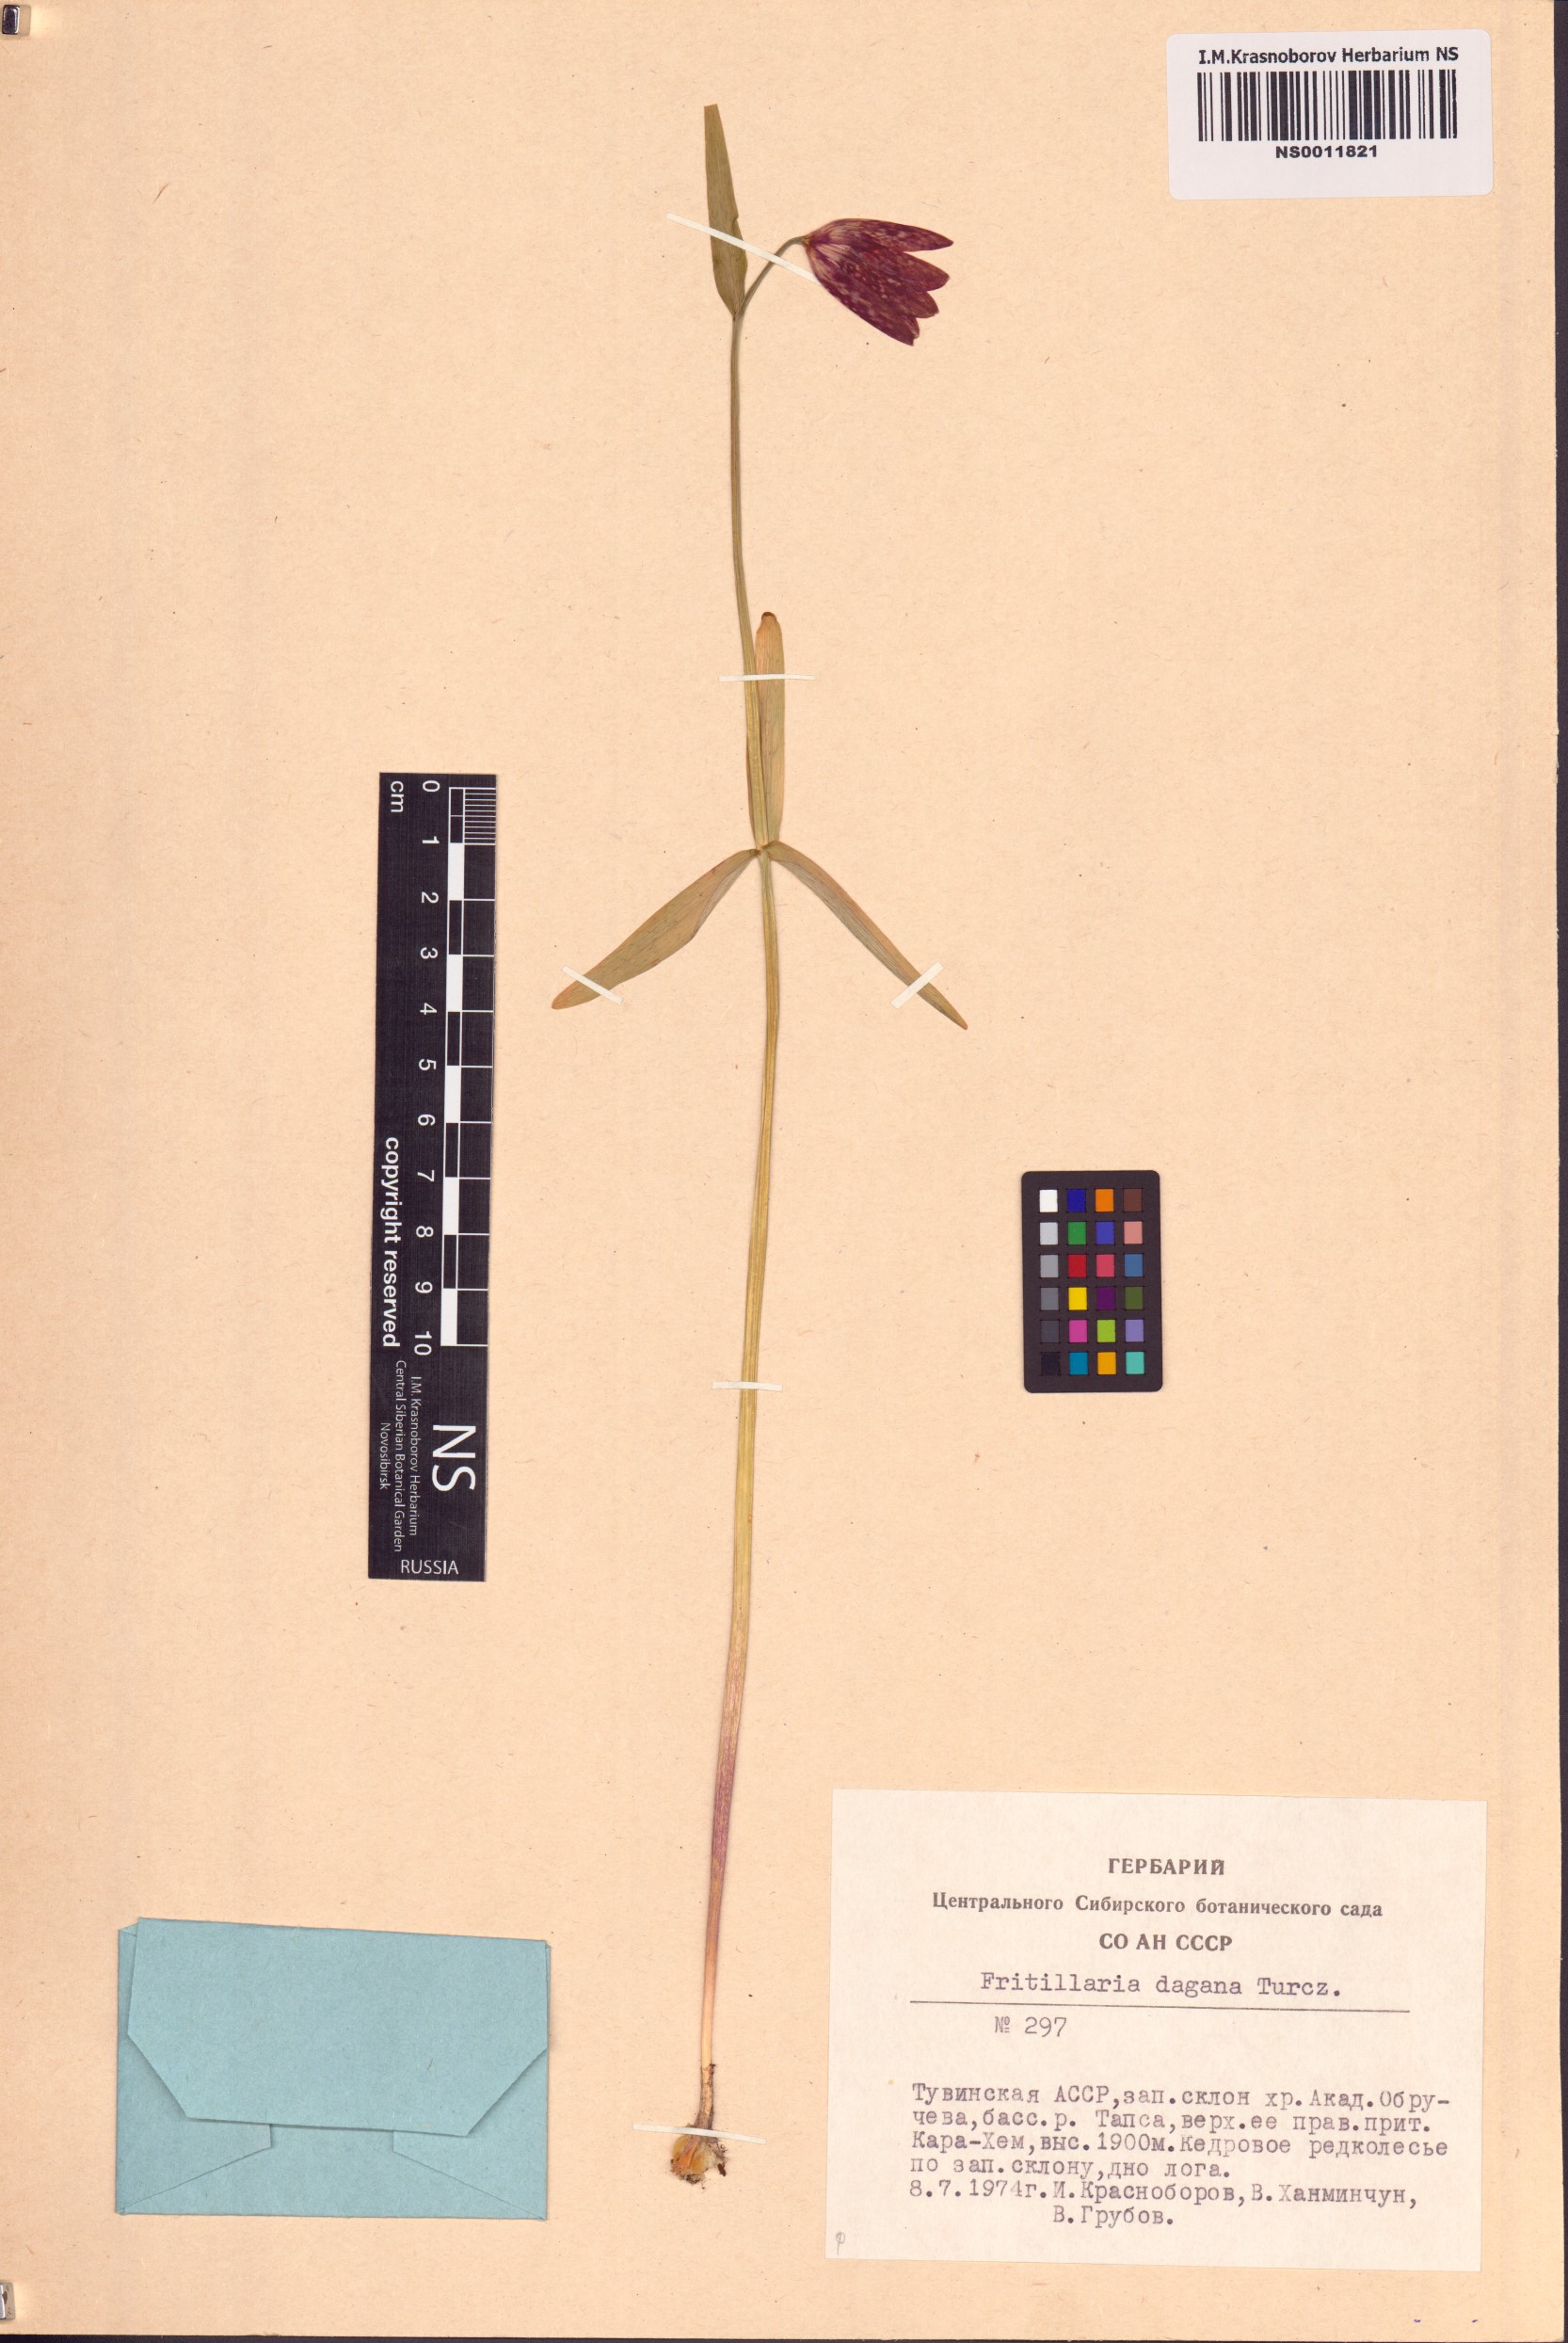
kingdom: Plantae
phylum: Tracheophyta
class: Liliopsida
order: Liliales
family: Liliaceae
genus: Fritillaria
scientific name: Fritillaria dagana
